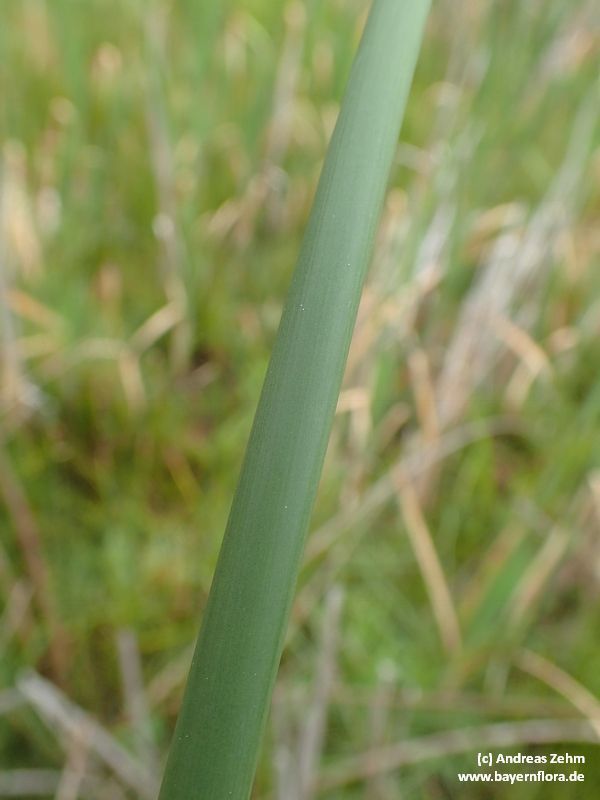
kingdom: Plantae
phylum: Tracheophyta
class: Liliopsida
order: Poales
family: Cyperaceae
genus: Schoenoplectus
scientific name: Schoenoplectus lacustris
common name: Common club-rush
